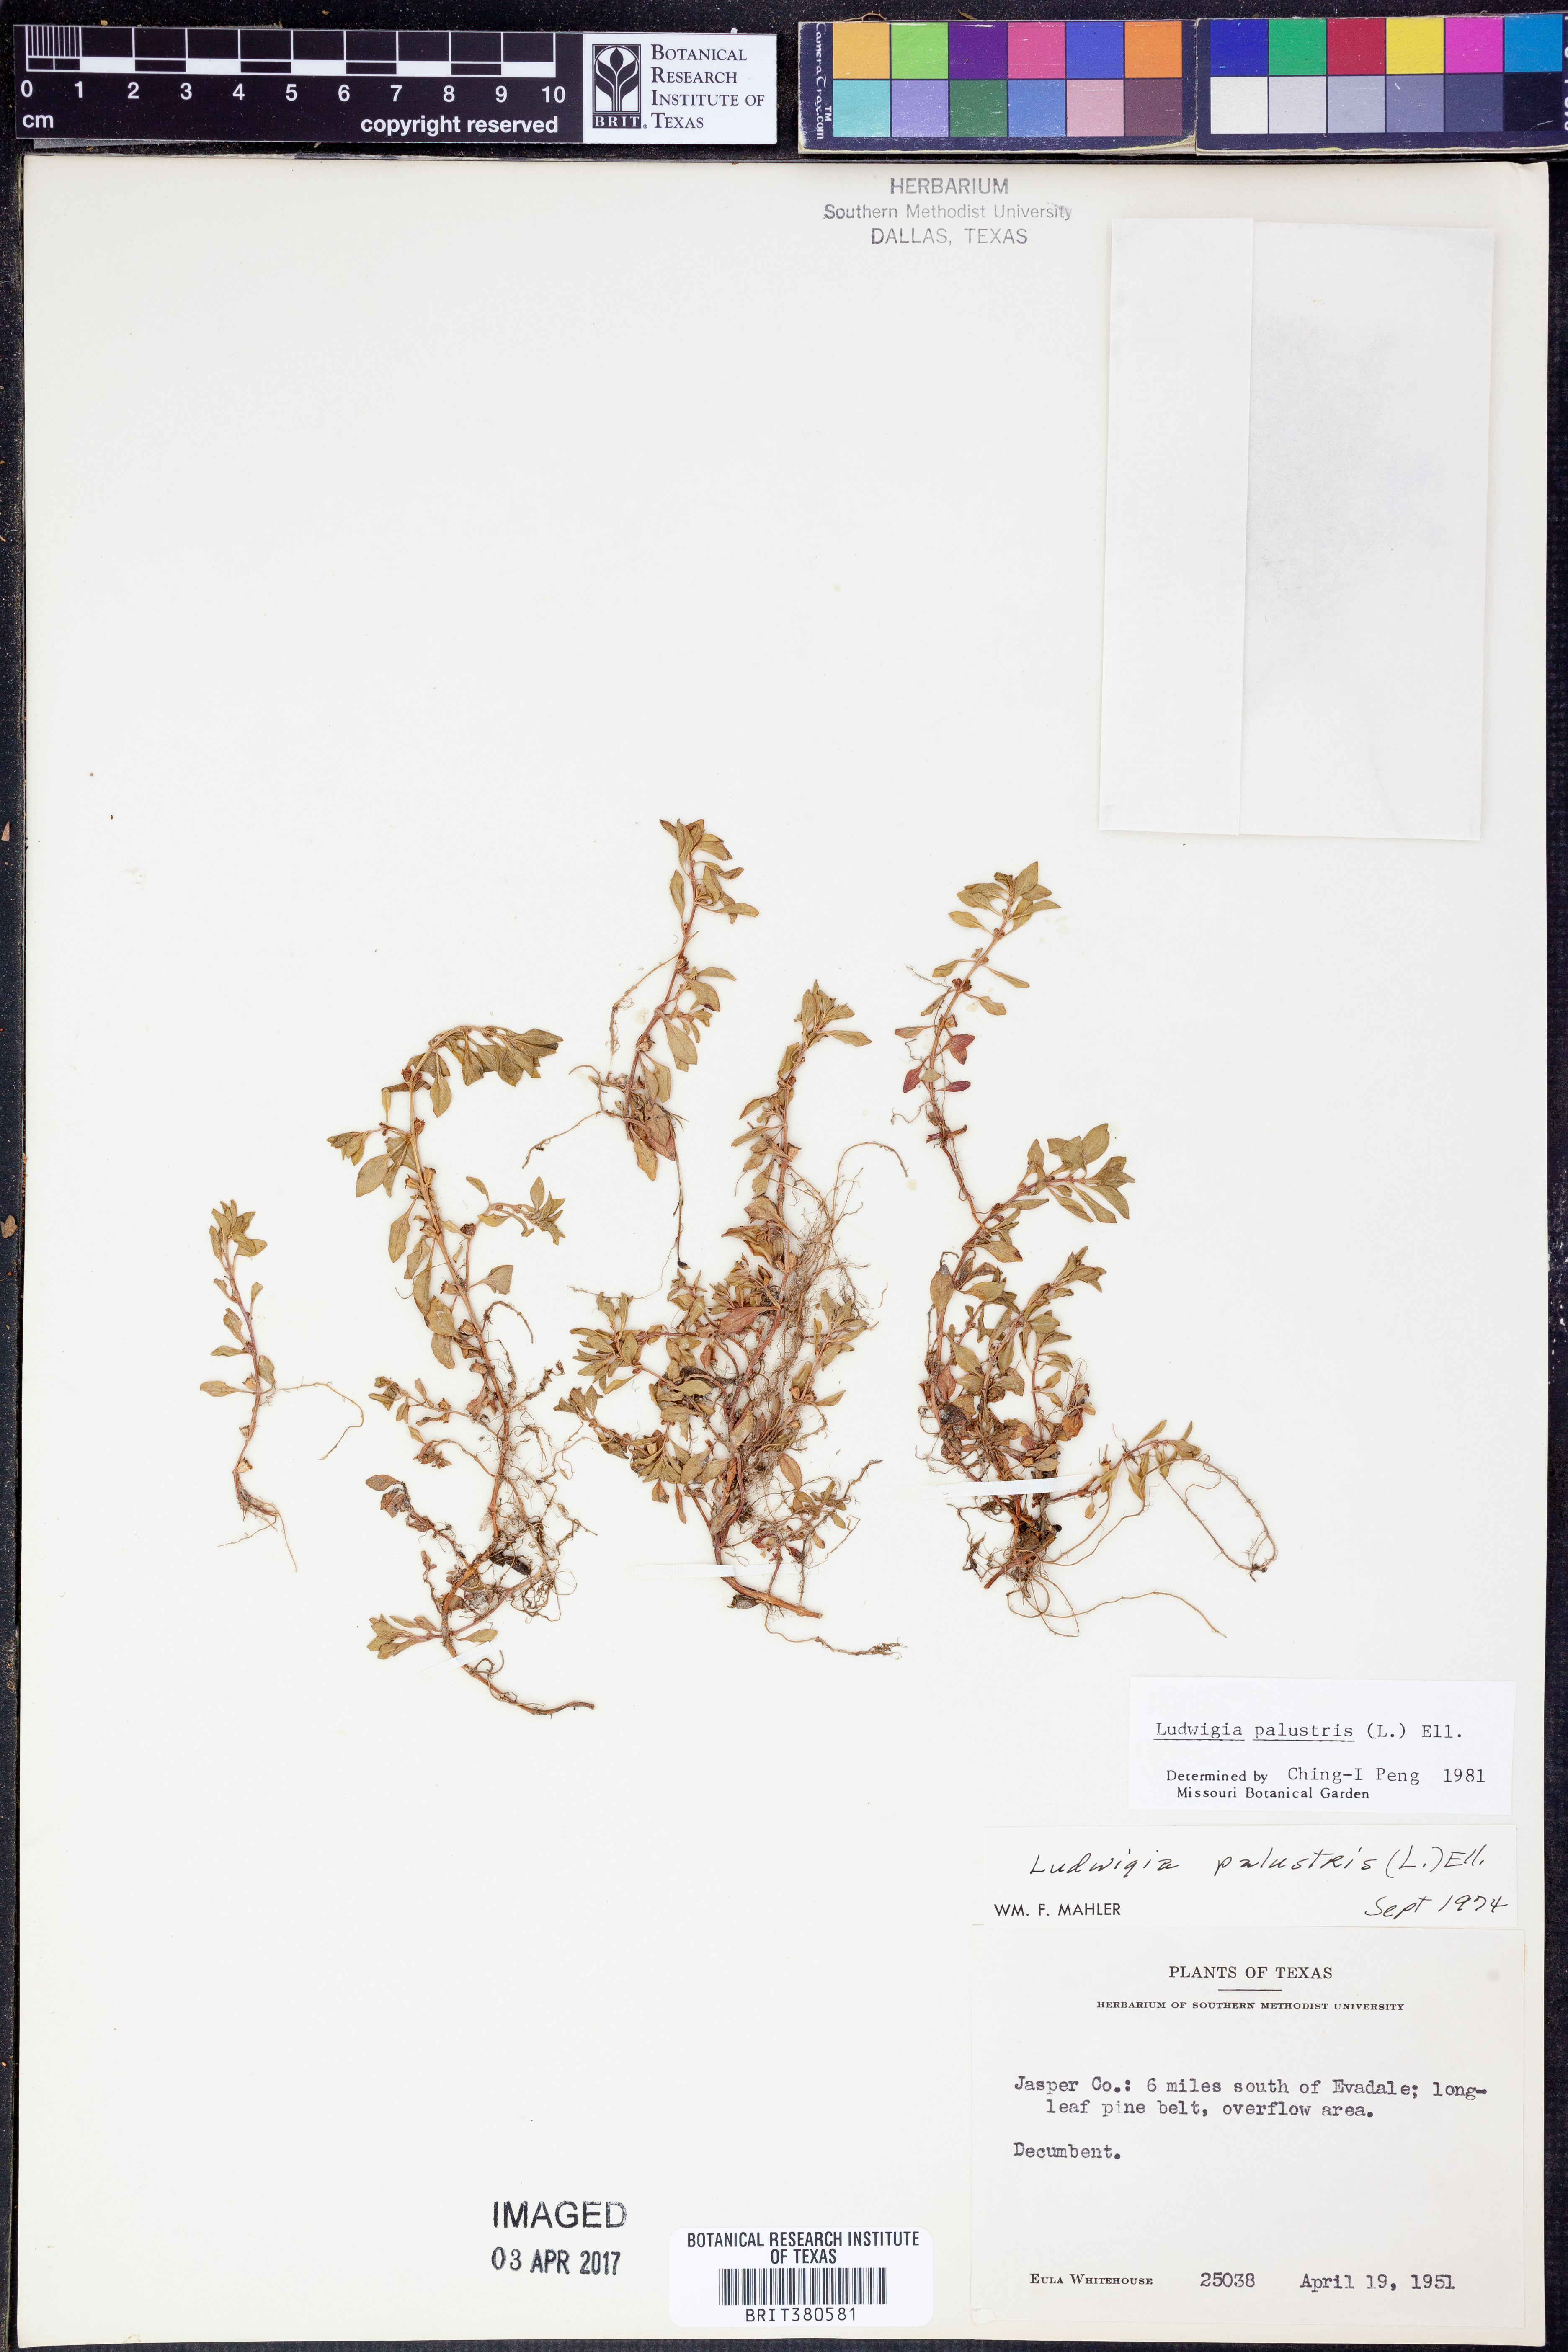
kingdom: Plantae
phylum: Tracheophyta
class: Magnoliopsida
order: Myrtales
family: Onagraceae
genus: Ludwigia
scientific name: Ludwigia palustris
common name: Hampshire-purslane
